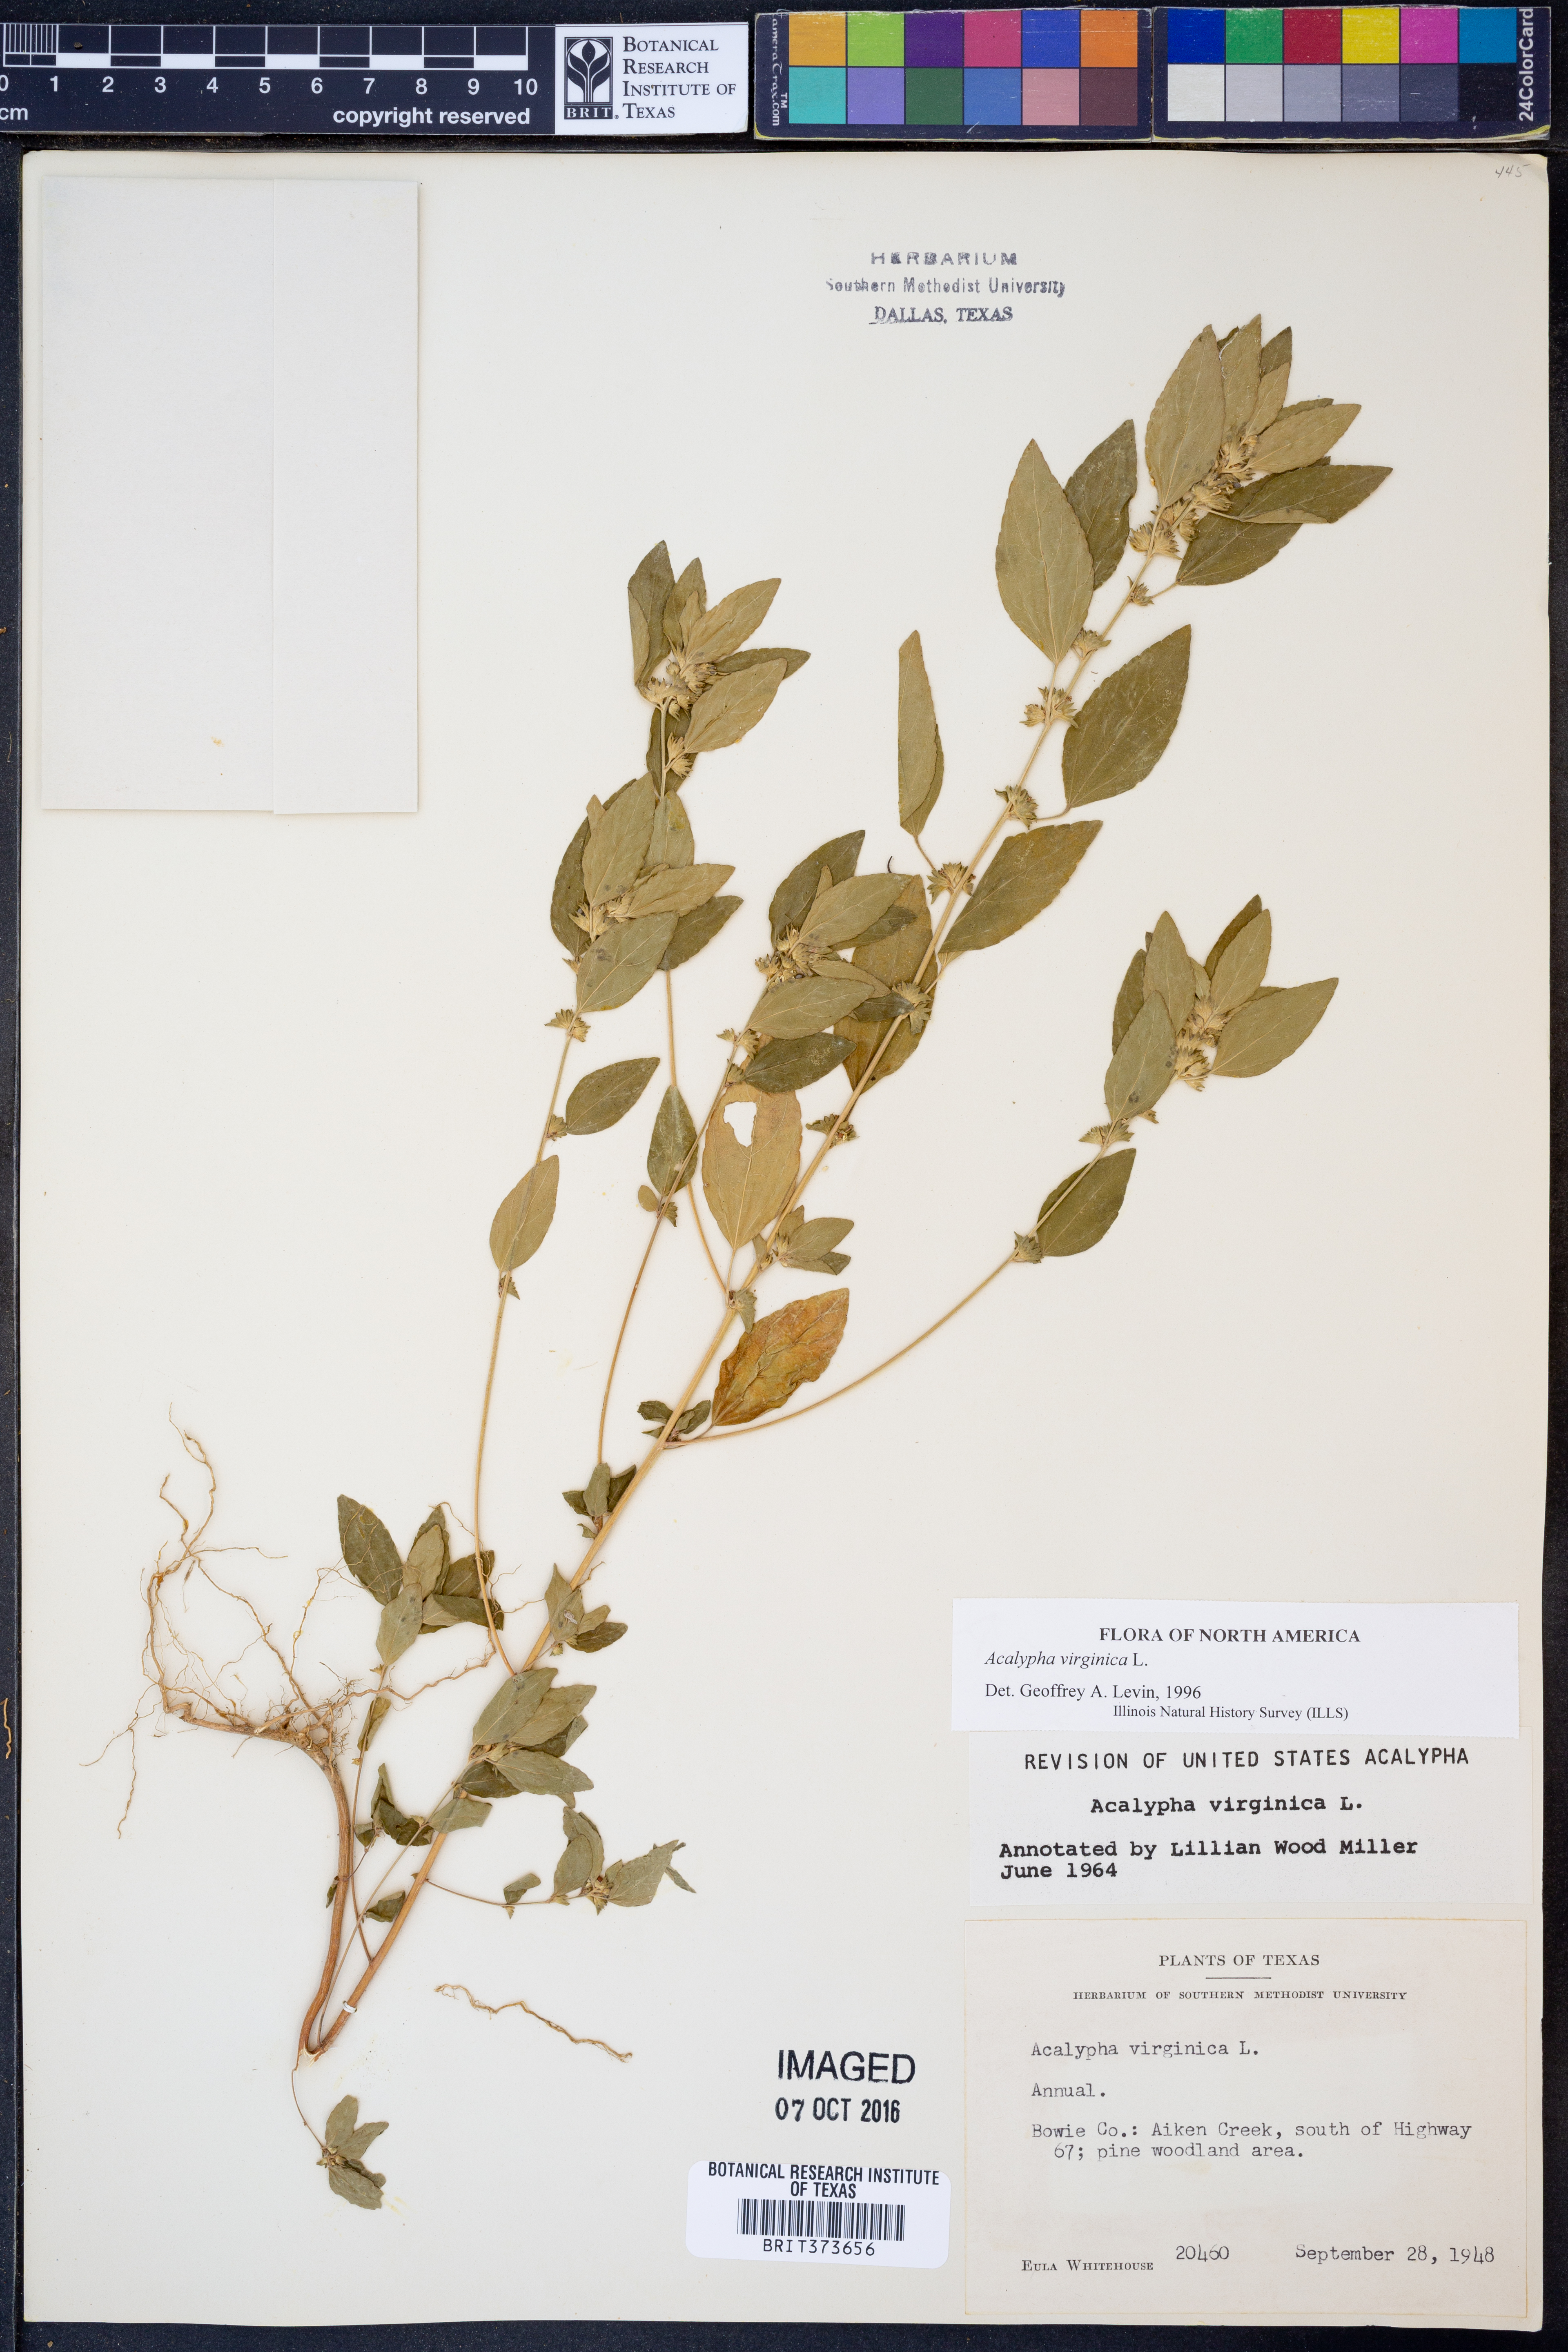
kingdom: Plantae
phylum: Tracheophyta
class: Magnoliopsida
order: Malpighiales
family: Euphorbiaceae
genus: Acalypha
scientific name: Acalypha virginica
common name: Virginia copperleaf
